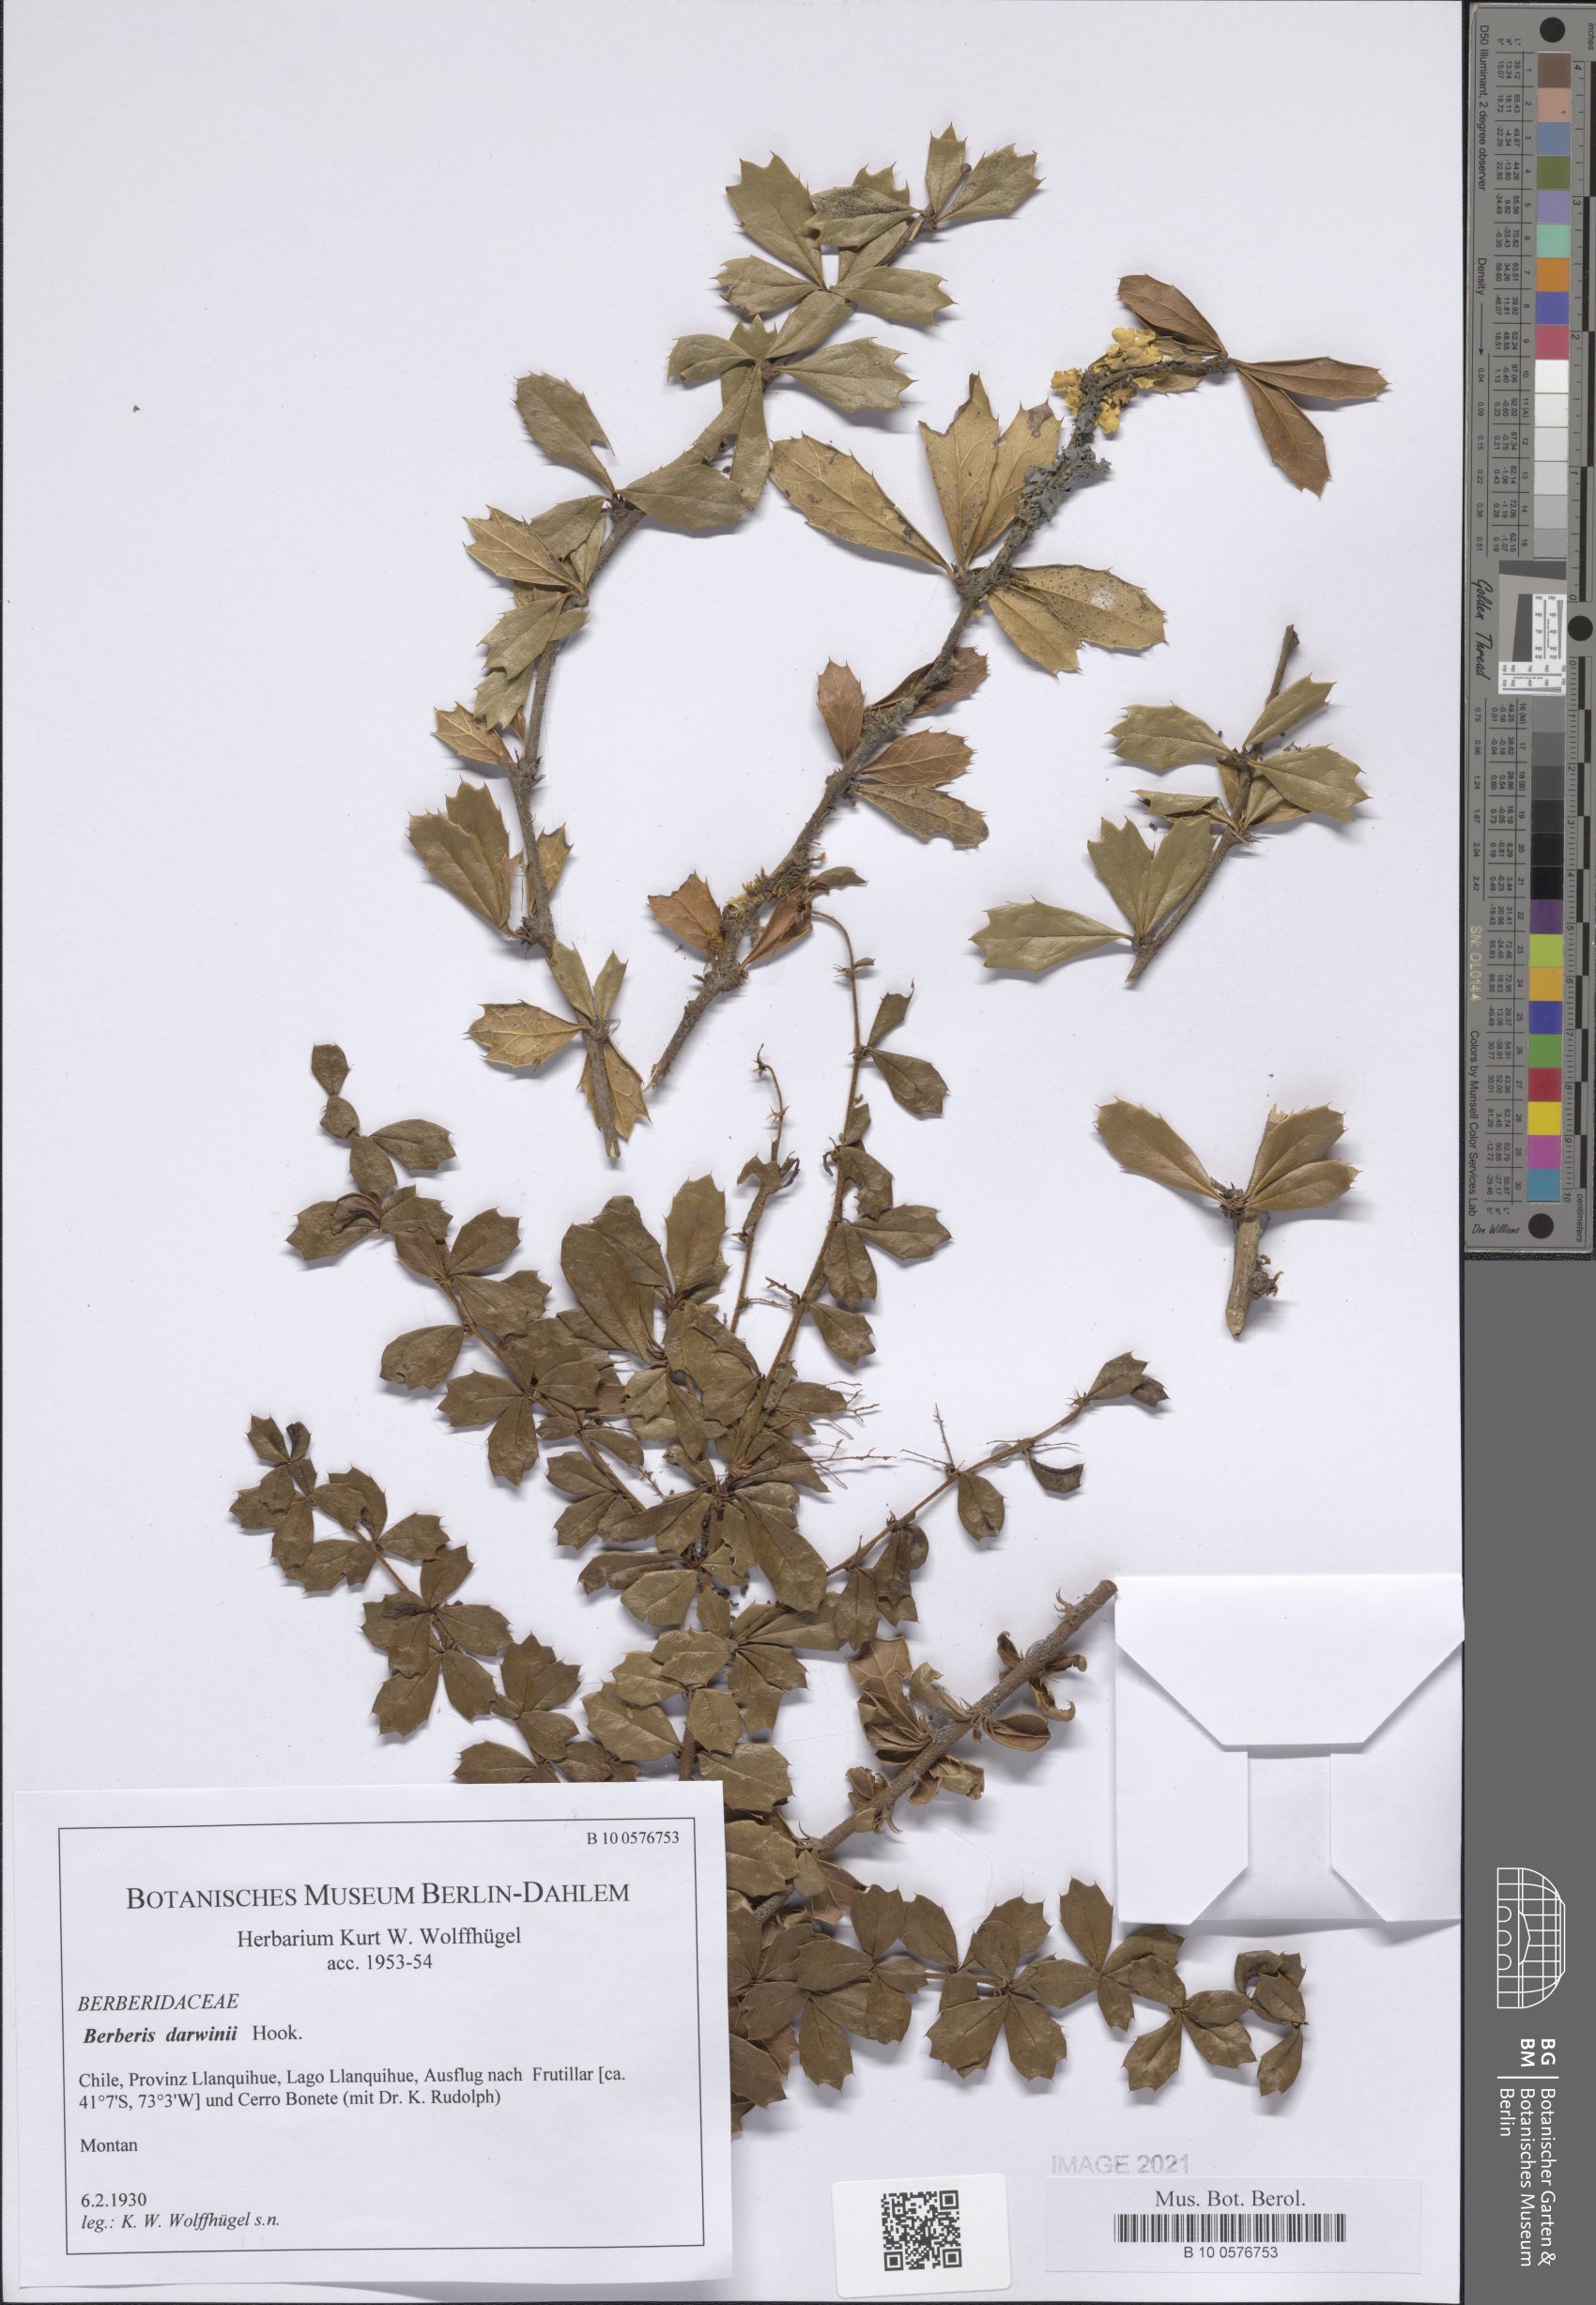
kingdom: Plantae
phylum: Tracheophyta
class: Magnoliopsida
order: Ranunculales
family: Berberidaceae
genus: Berberis
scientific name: Berberis darwinii
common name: Darwin's barberry
